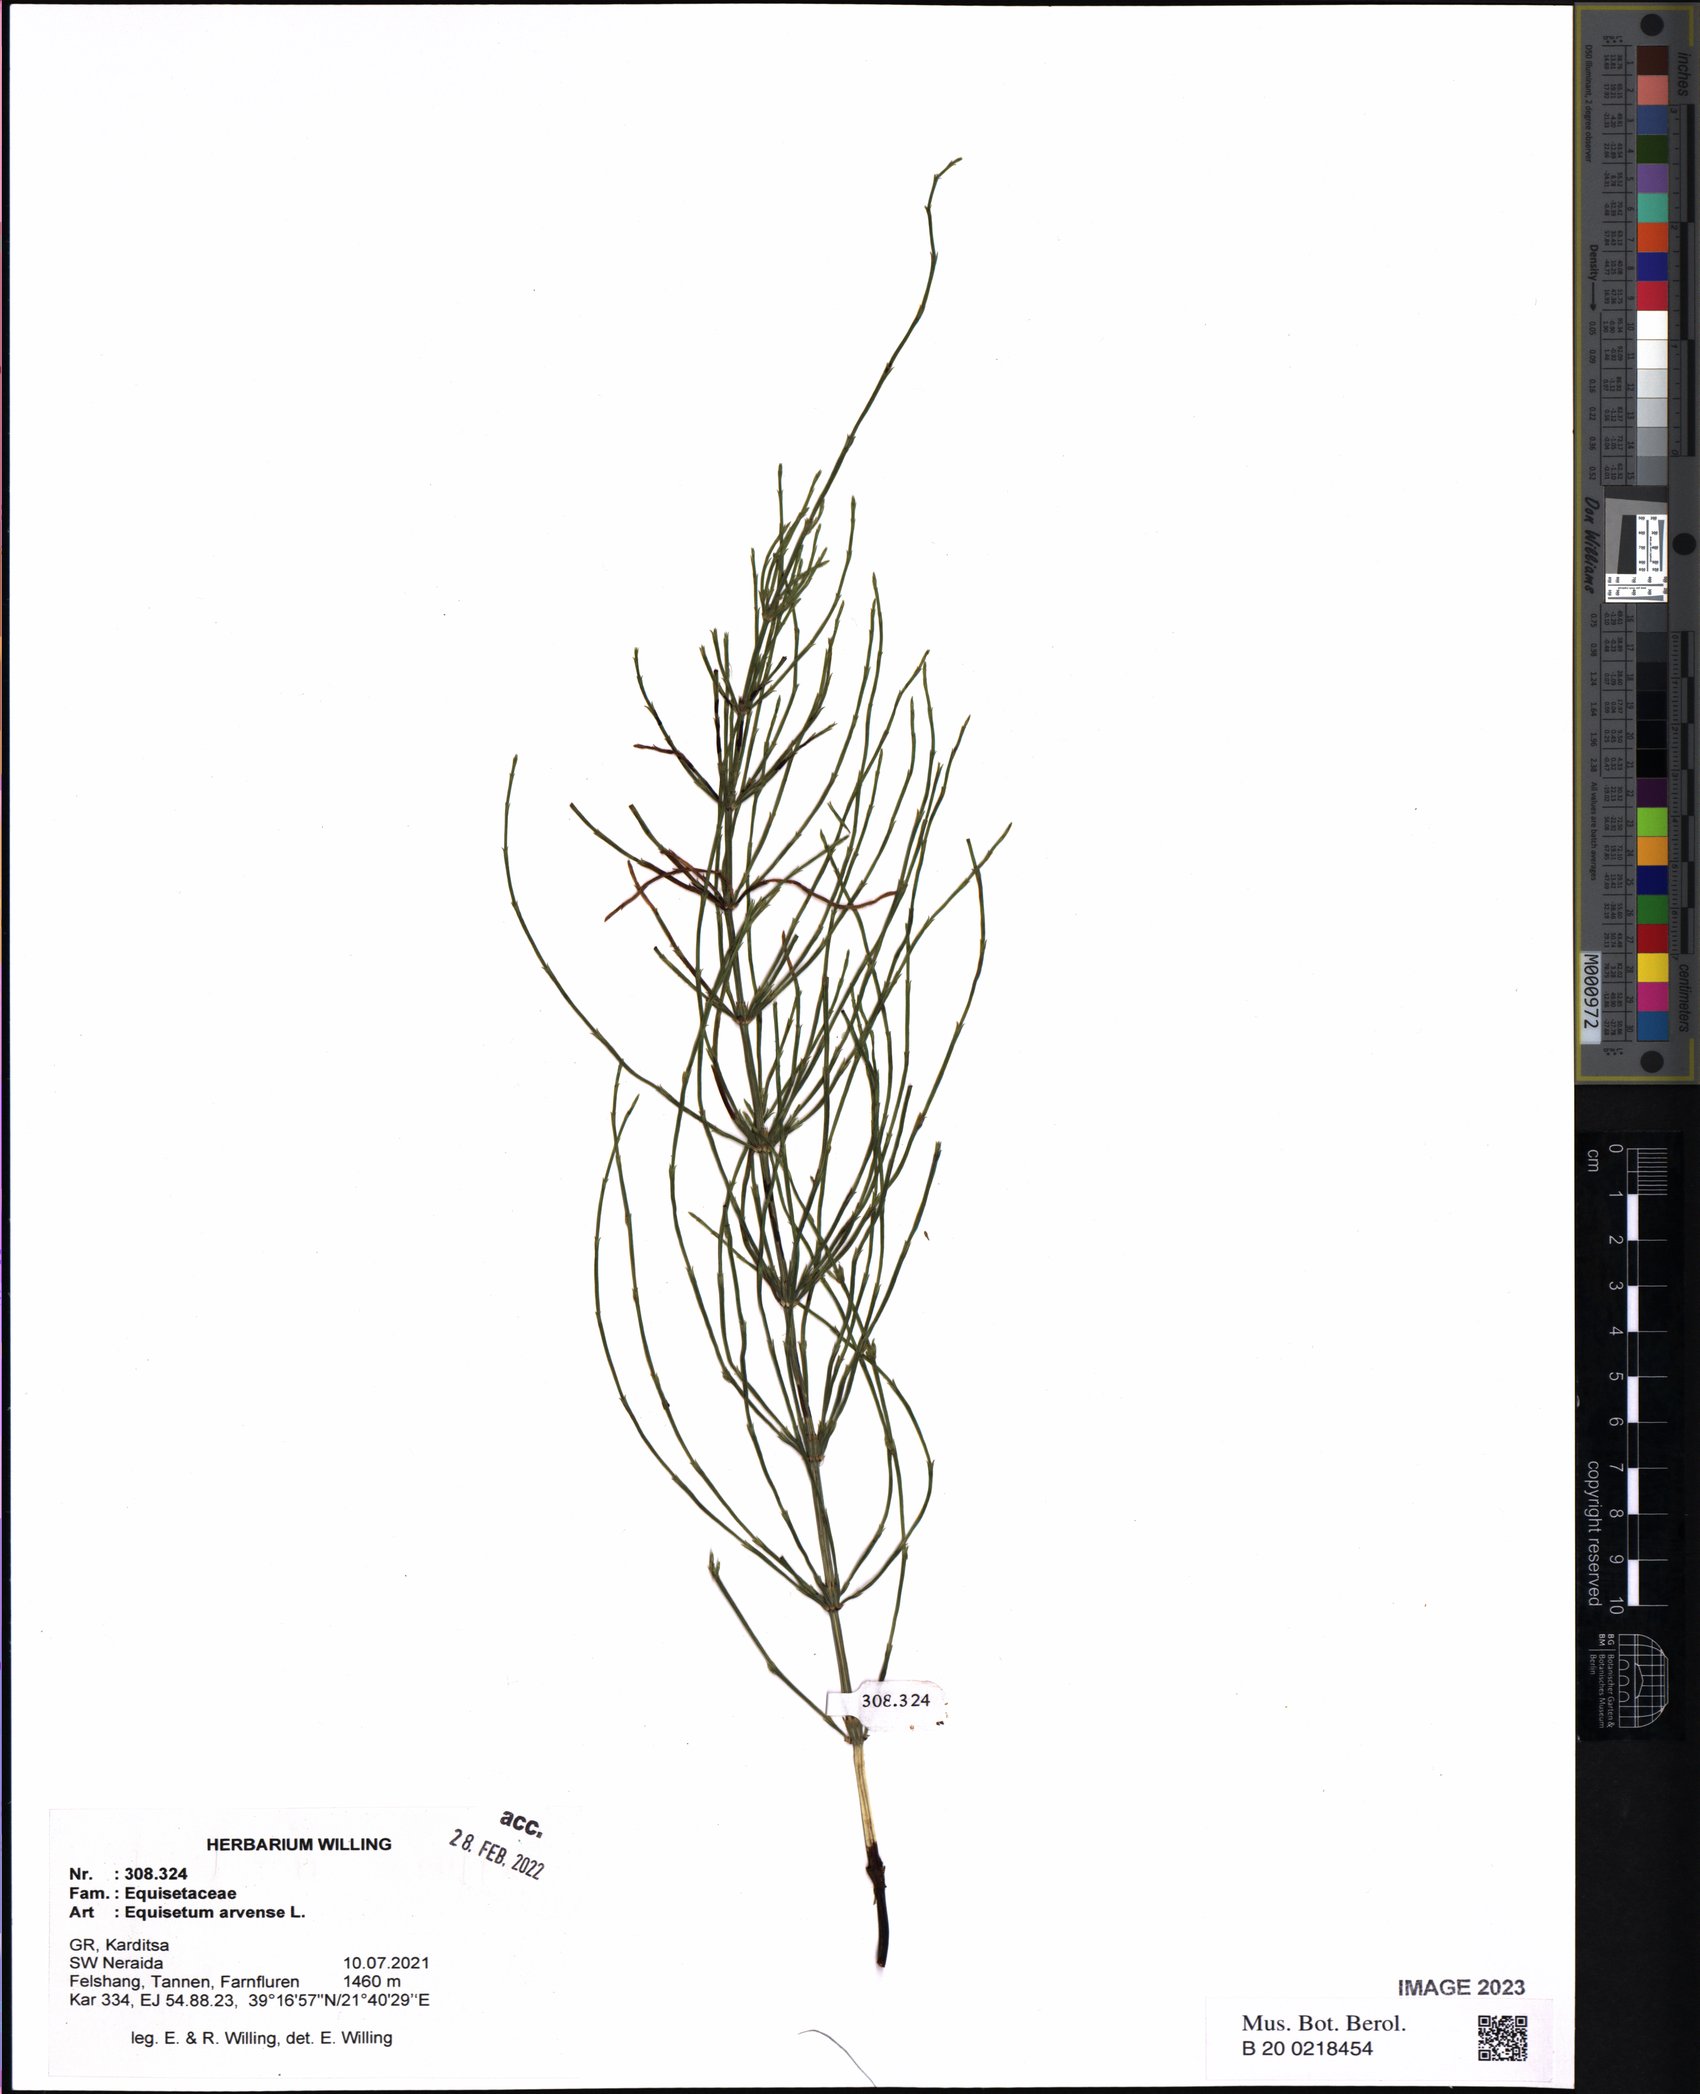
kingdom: Plantae
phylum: Tracheophyta
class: Polypodiopsida
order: Equisetales
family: Equisetaceae
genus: Equisetum
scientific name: Equisetum arvense
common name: Field horsetail
